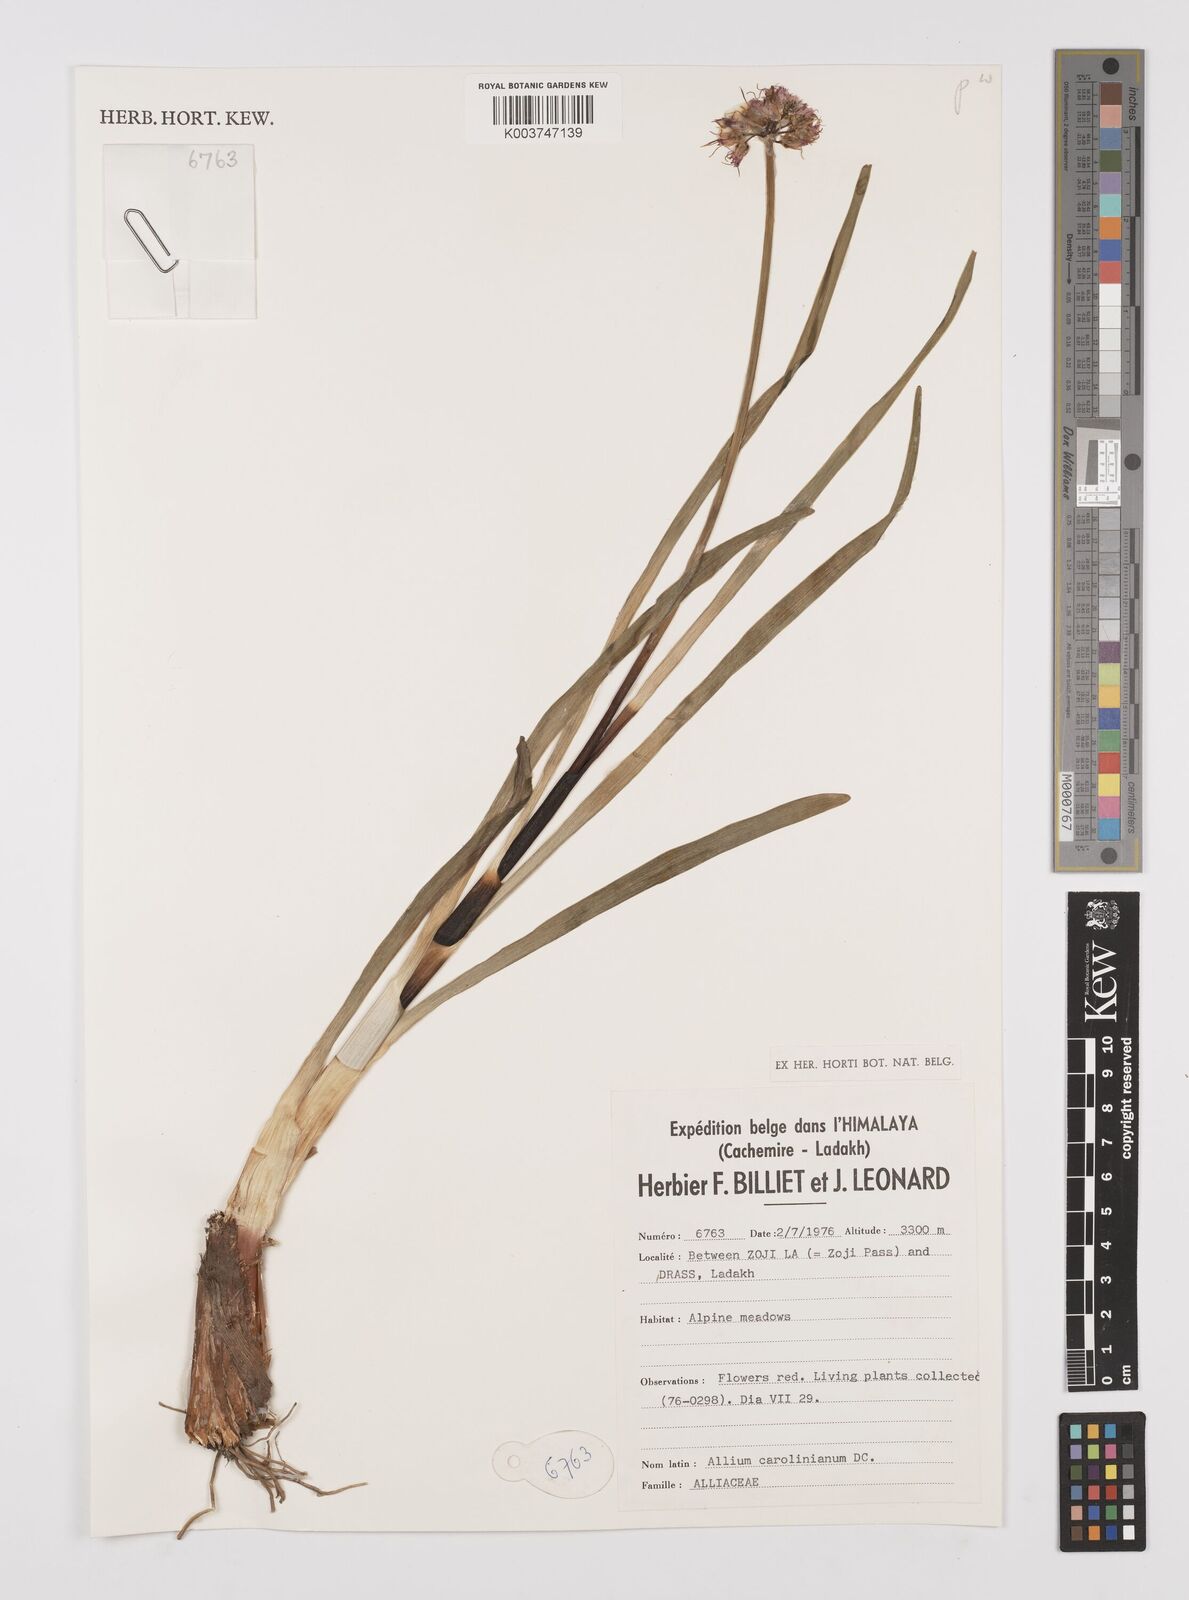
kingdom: Plantae
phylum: Tracheophyta
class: Liliopsida
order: Asparagales
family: Amaryllidaceae
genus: Allium
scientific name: Allium carolinianum
